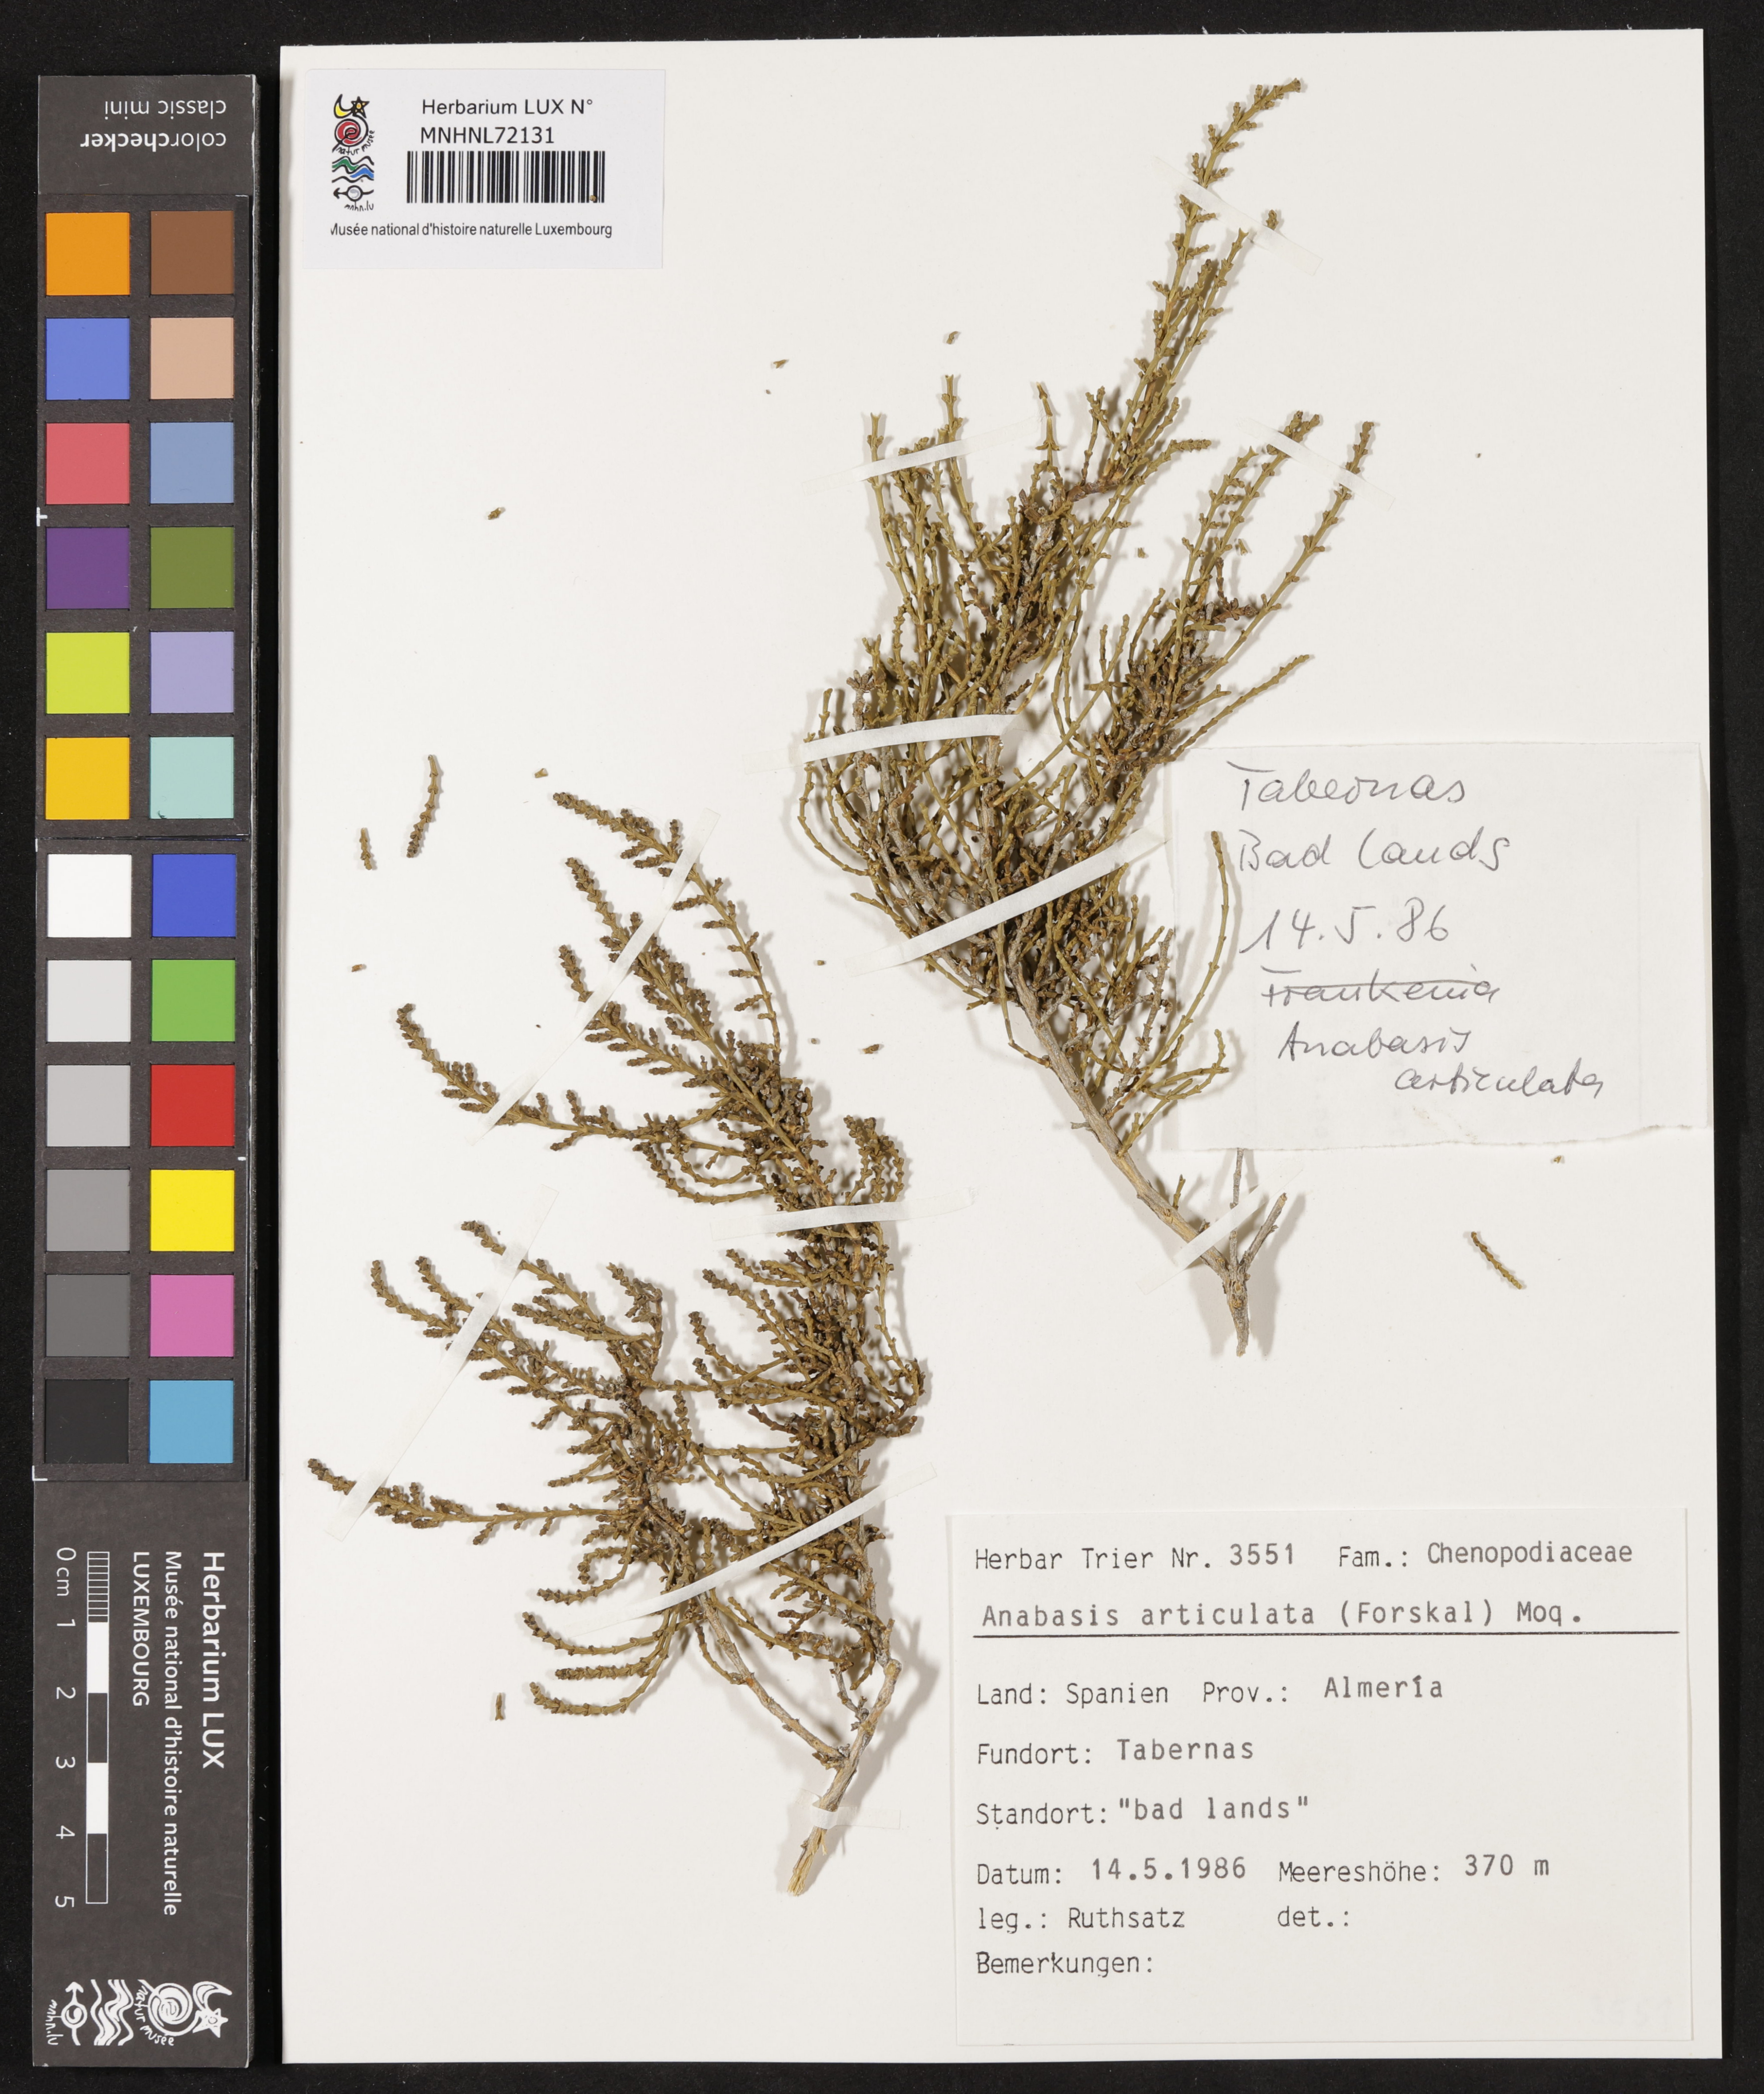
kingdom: Plantae
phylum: Tracheophyta
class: Magnoliopsida
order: Caryophyllales
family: Amaranthaceae
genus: Anabasis
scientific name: Anabasis articulata
